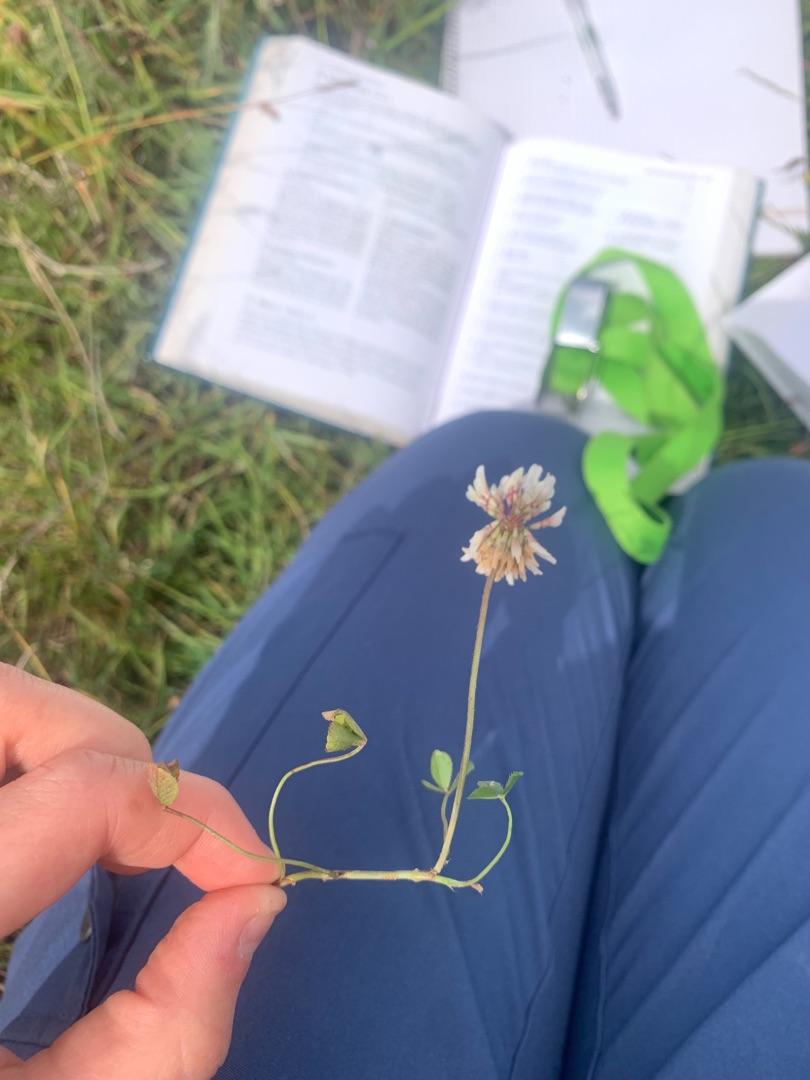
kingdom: Plantae
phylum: Tracheophyta
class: Magnoliopsida
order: Fabales
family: Fabaceae
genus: Trifolium
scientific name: Trifolium repens
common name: Hvid-kløver
